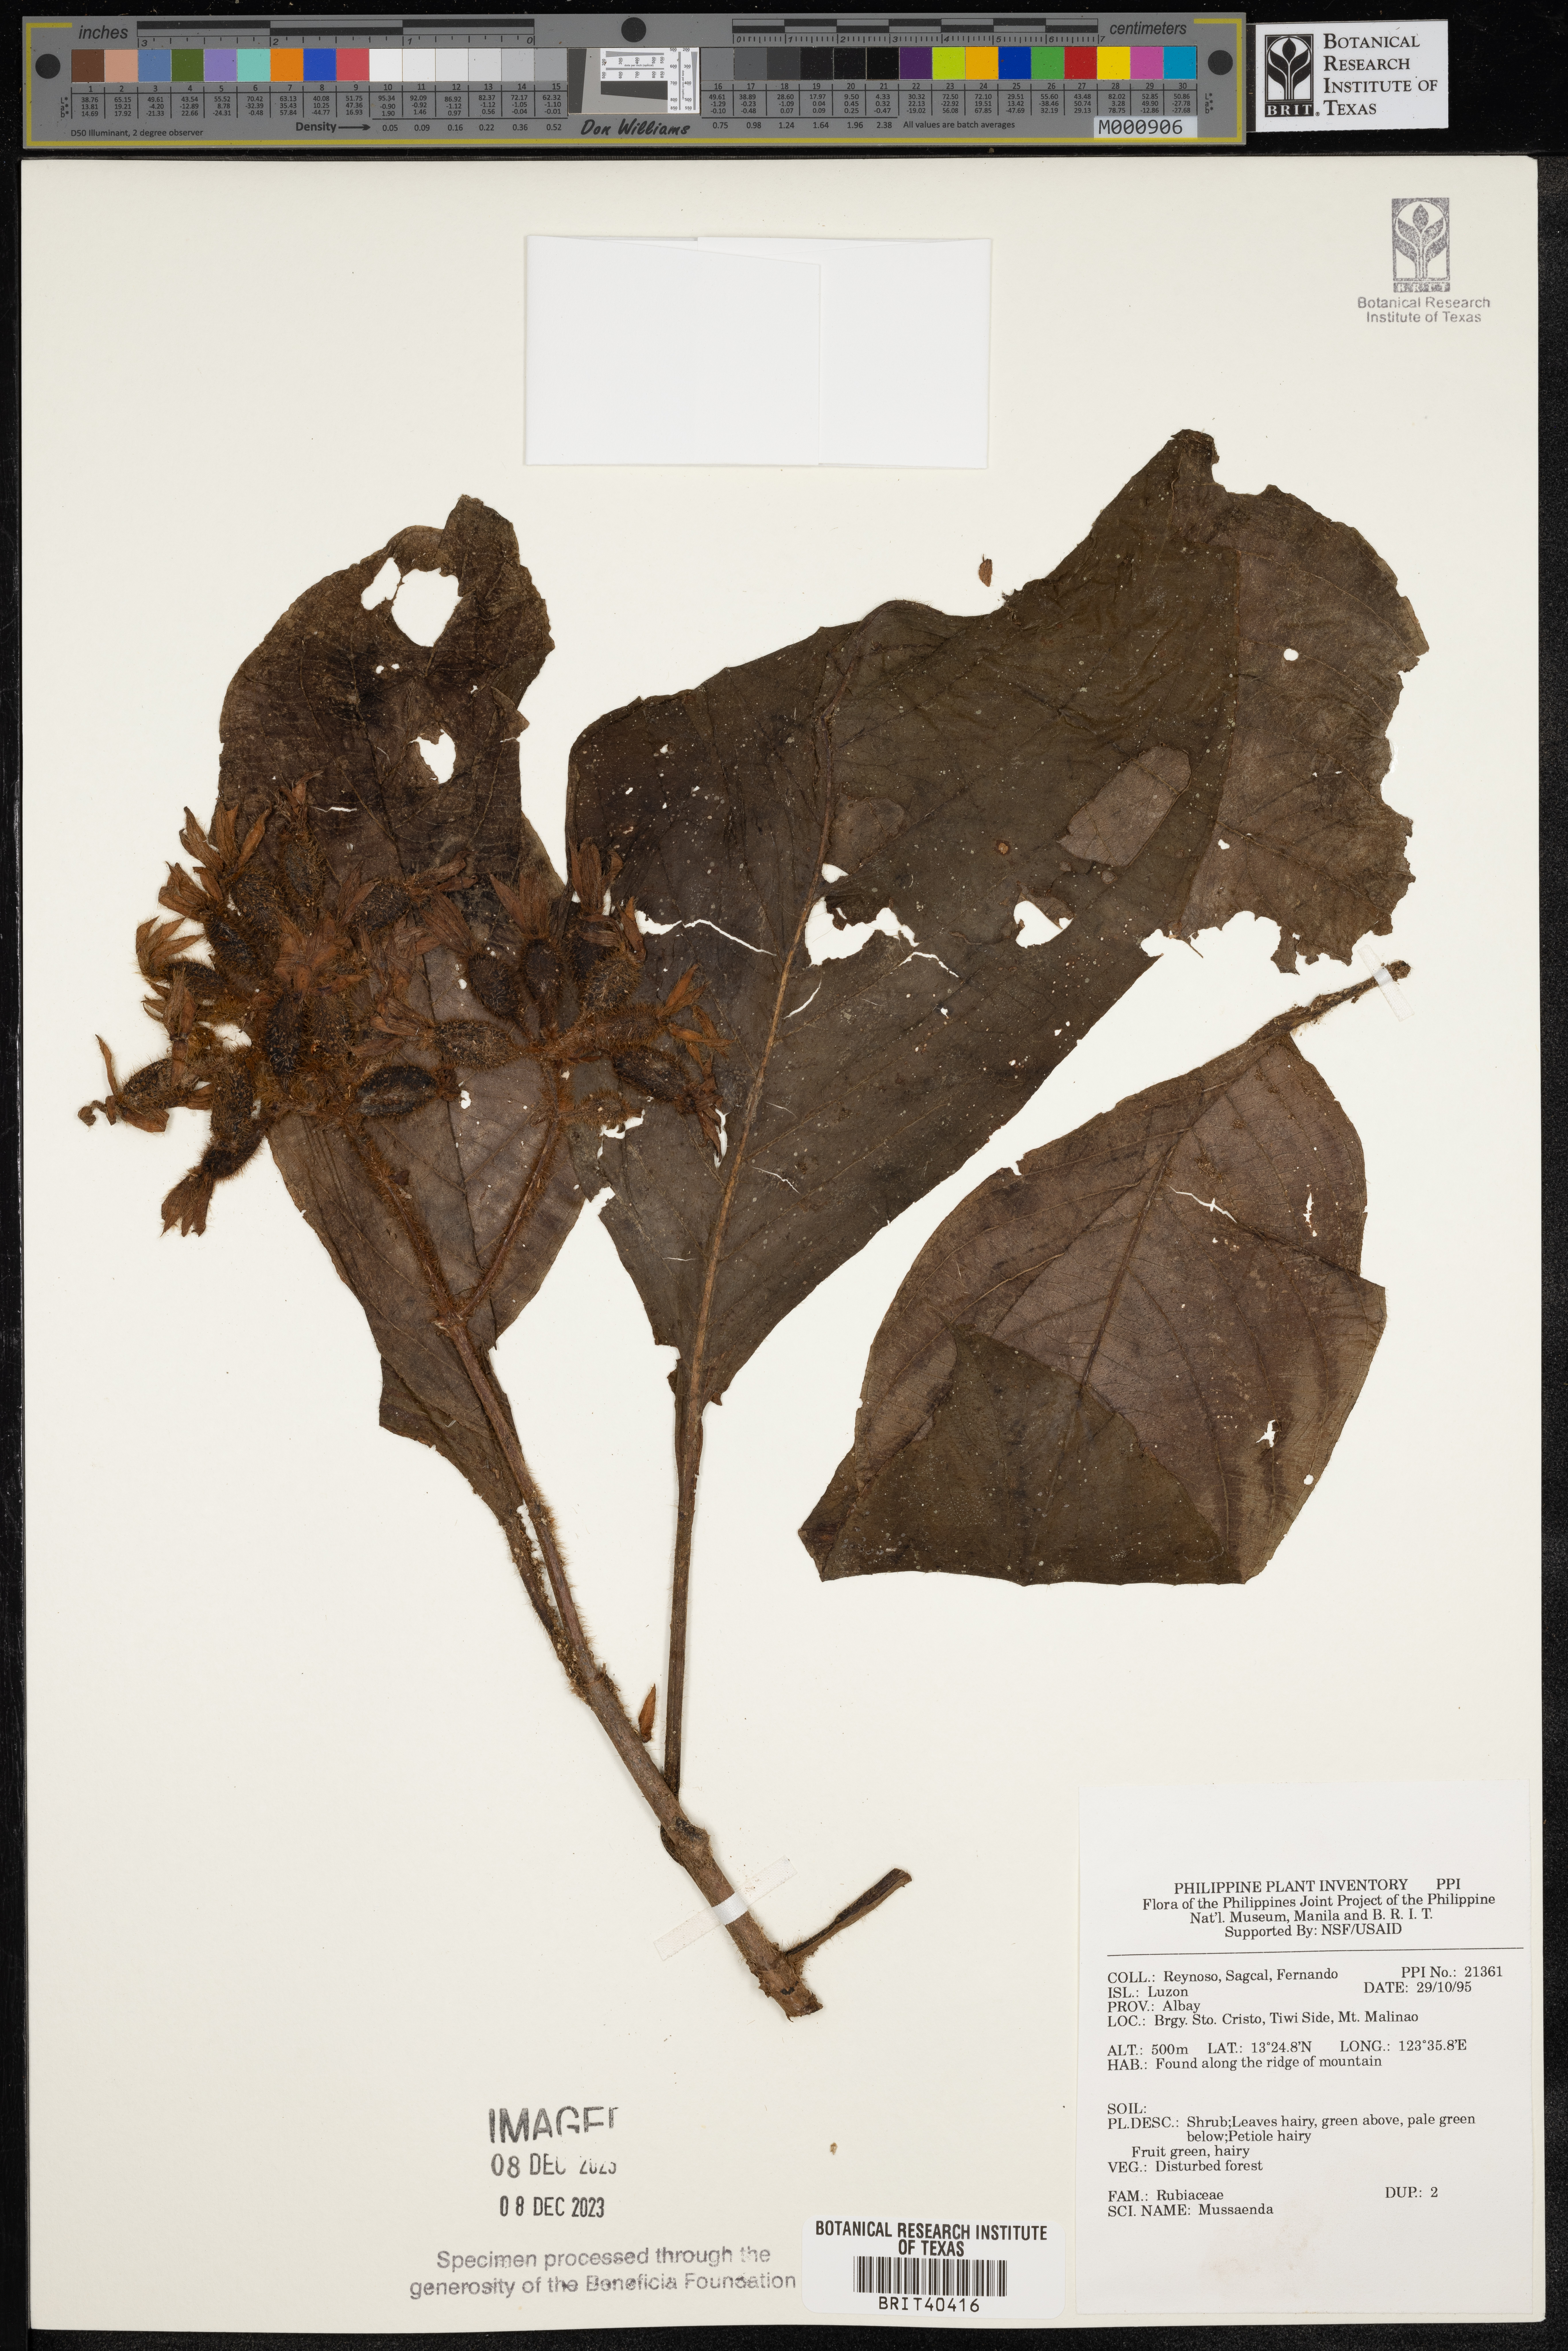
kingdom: Plantae
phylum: Tracheophyta
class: Magnoliopsida
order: Gentianales
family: Rubiaceae
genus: Mussaenda
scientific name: Mussaenda
